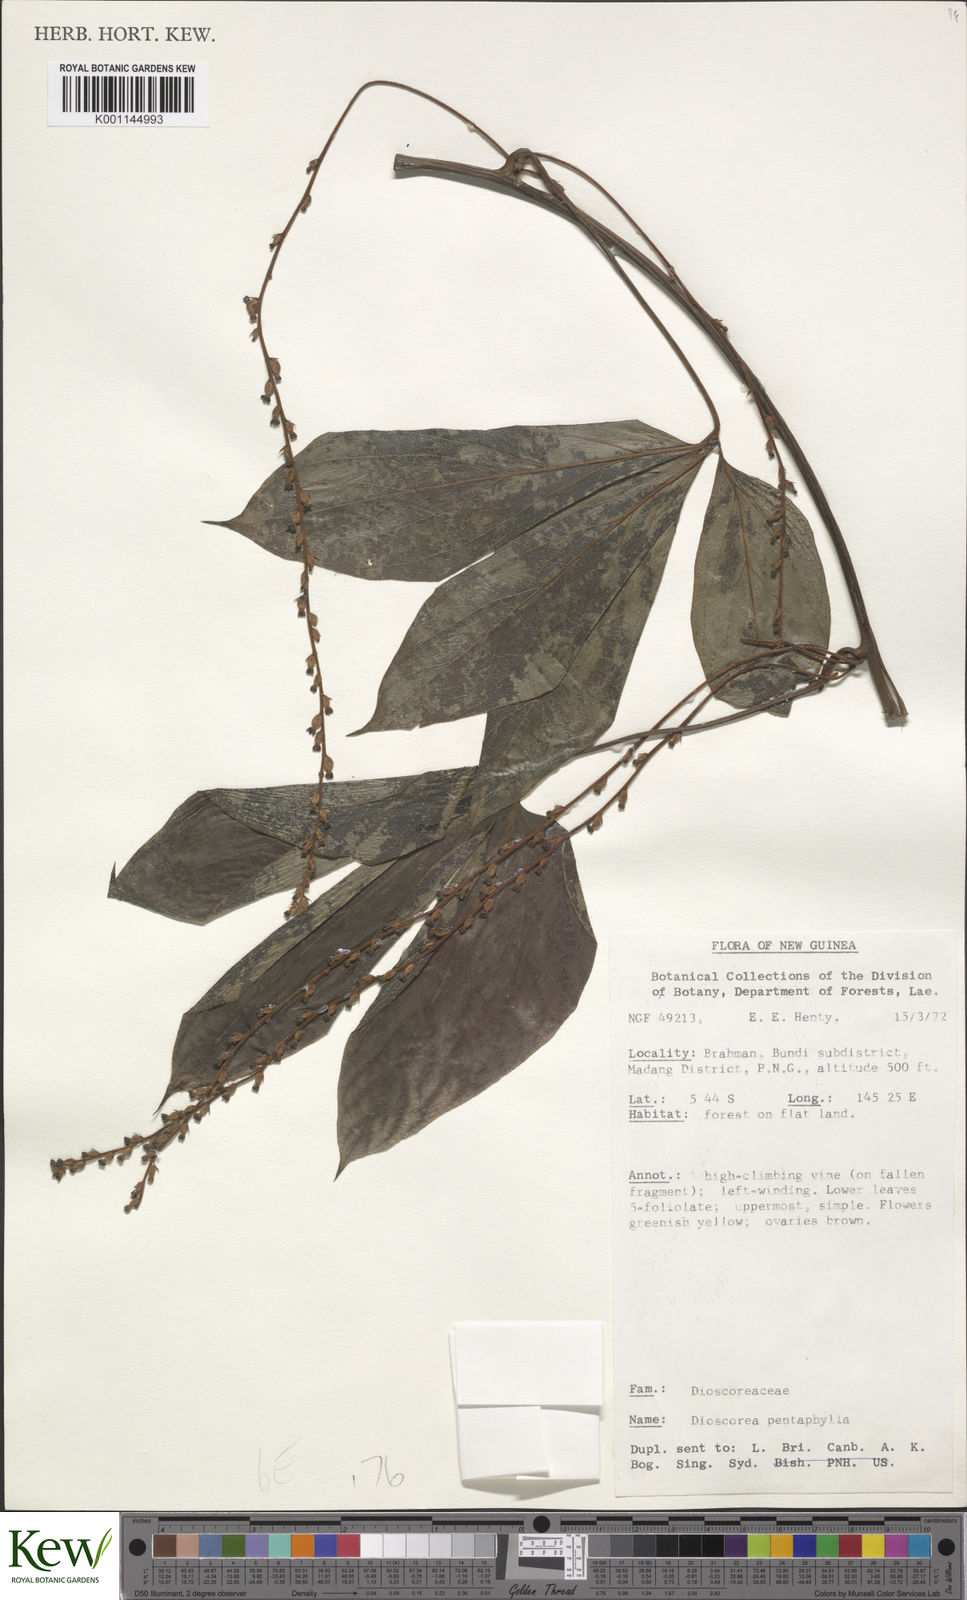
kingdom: Plantae
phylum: Tracheophyta
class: Liliopsida
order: Dioscoreales
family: Dioscoreaceae
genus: Dioscorea
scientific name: Dioscorea pentaphylla
